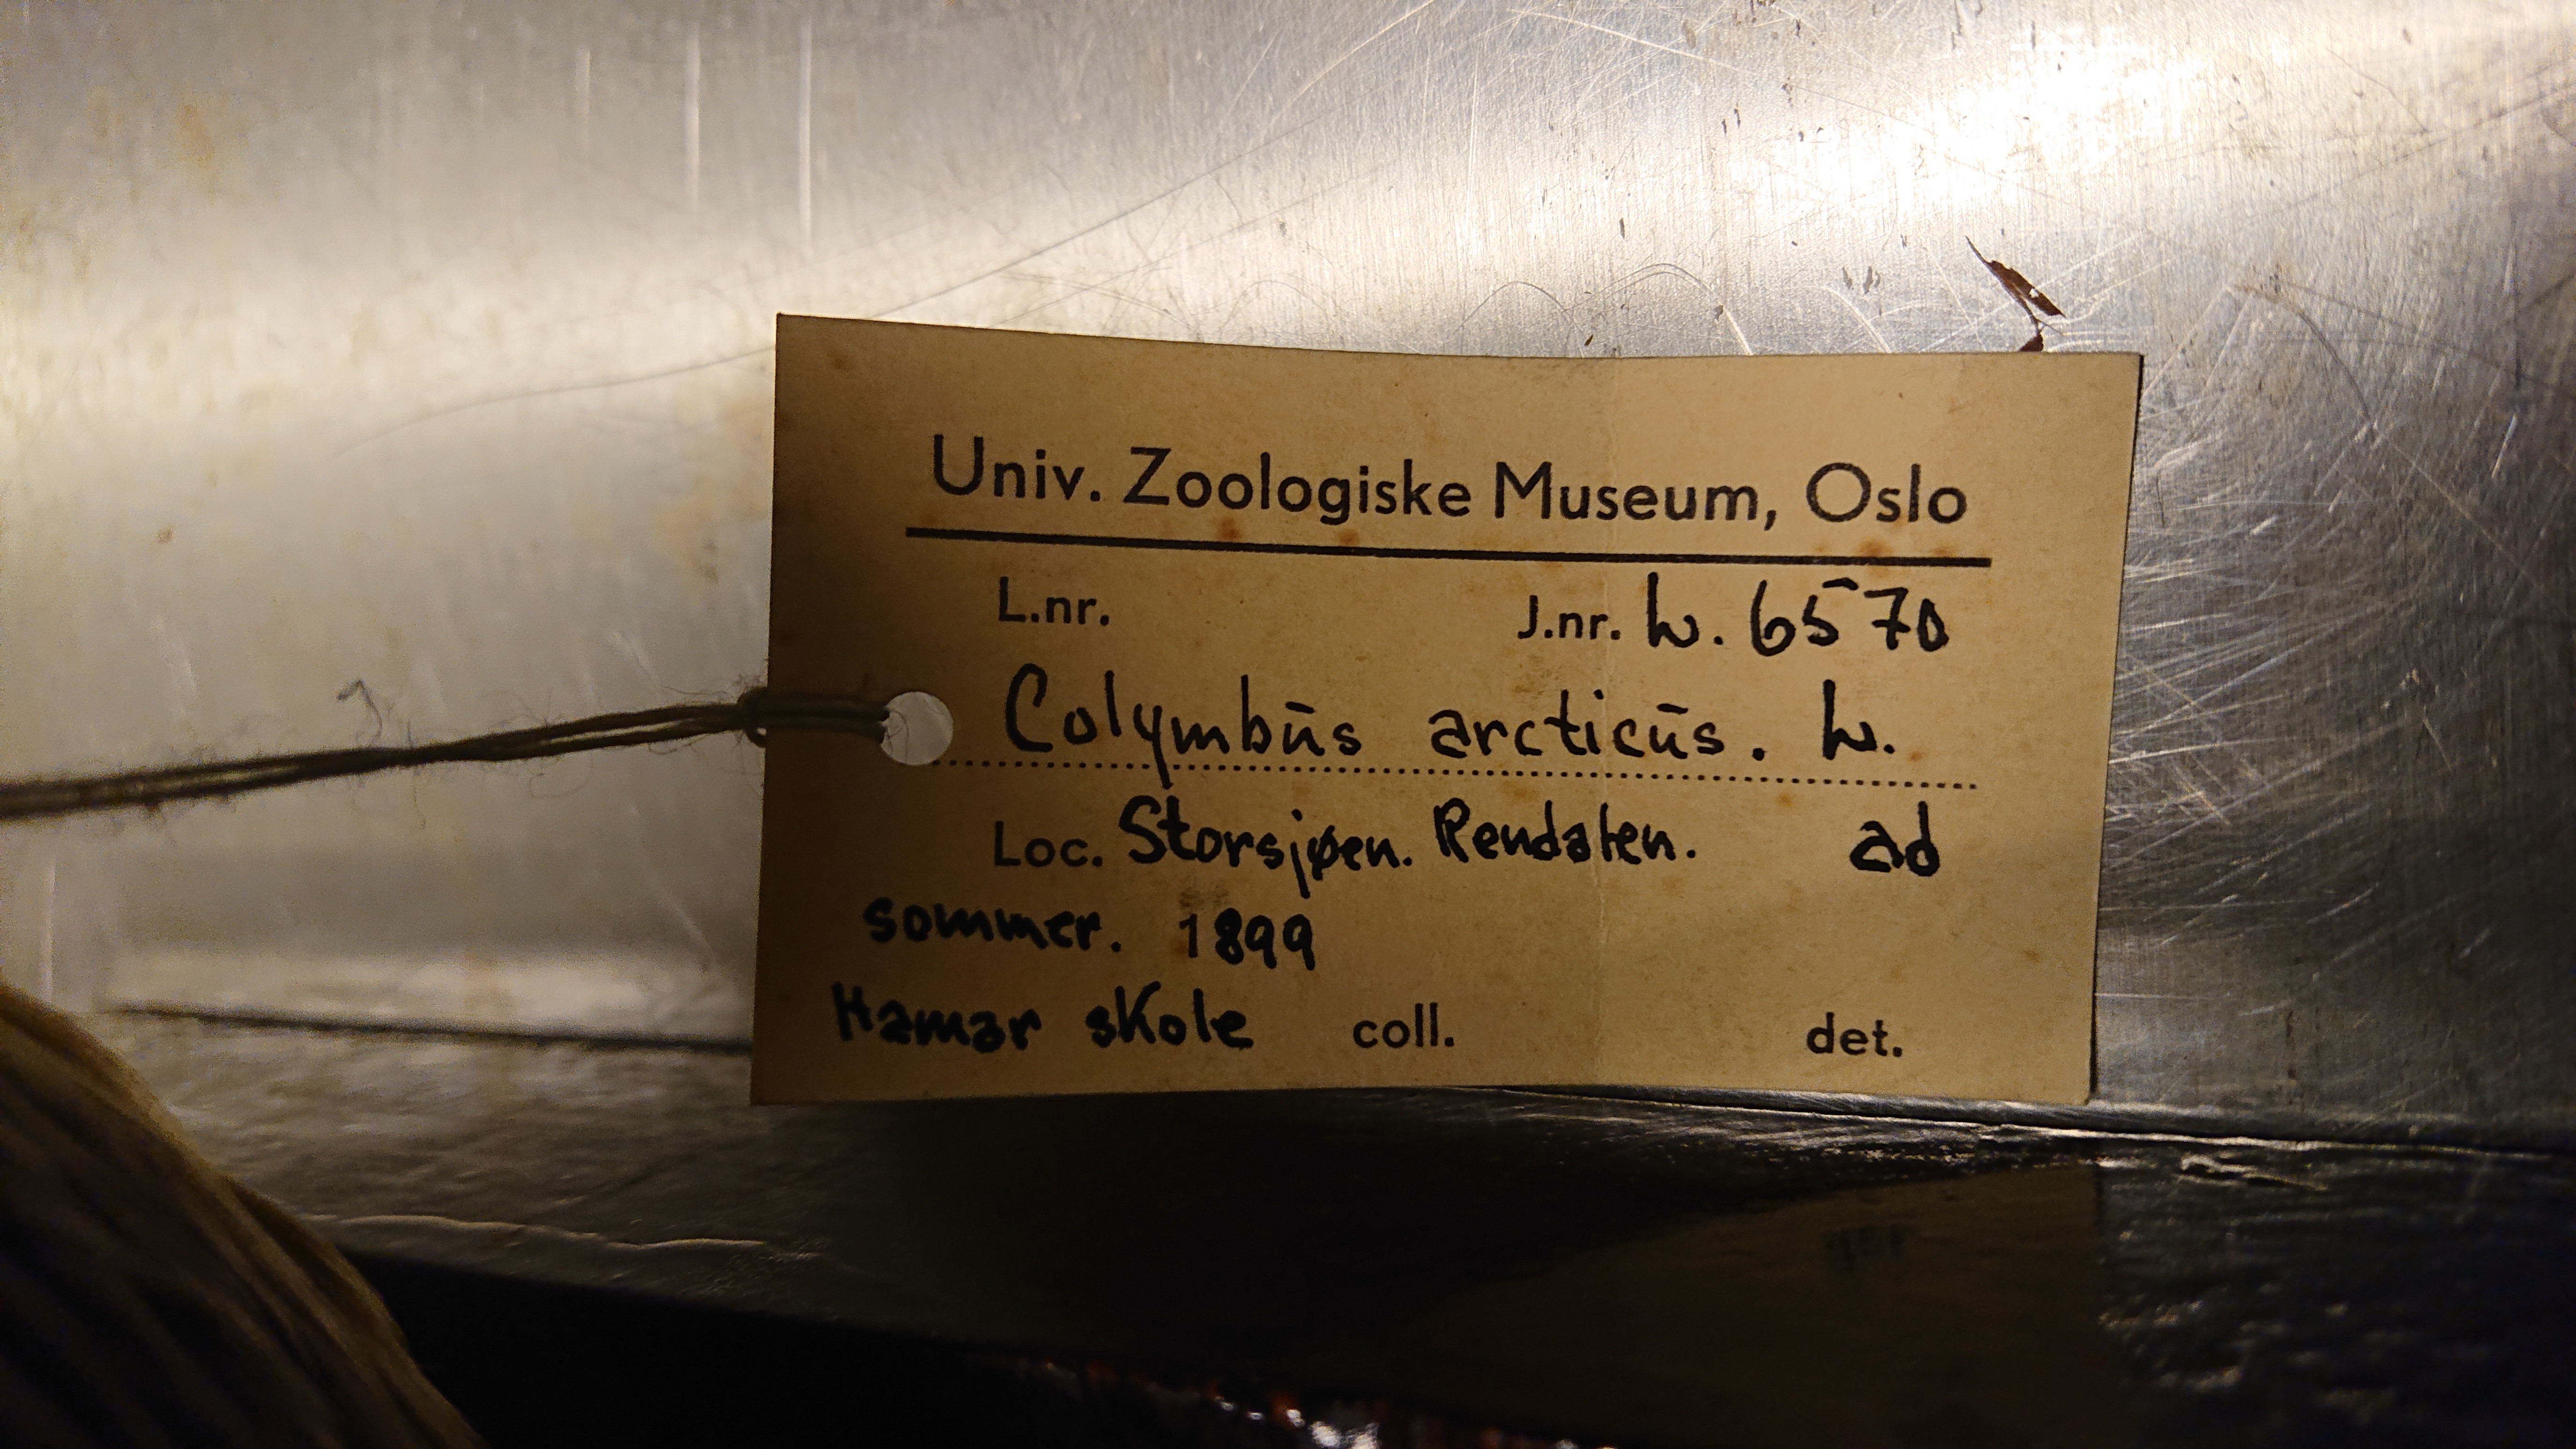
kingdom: Animalia
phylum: Chordata
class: Aves
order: Gaviiformes
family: Gaviidae
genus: Gavia
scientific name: Gavia arctica
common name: Black-throated loon
